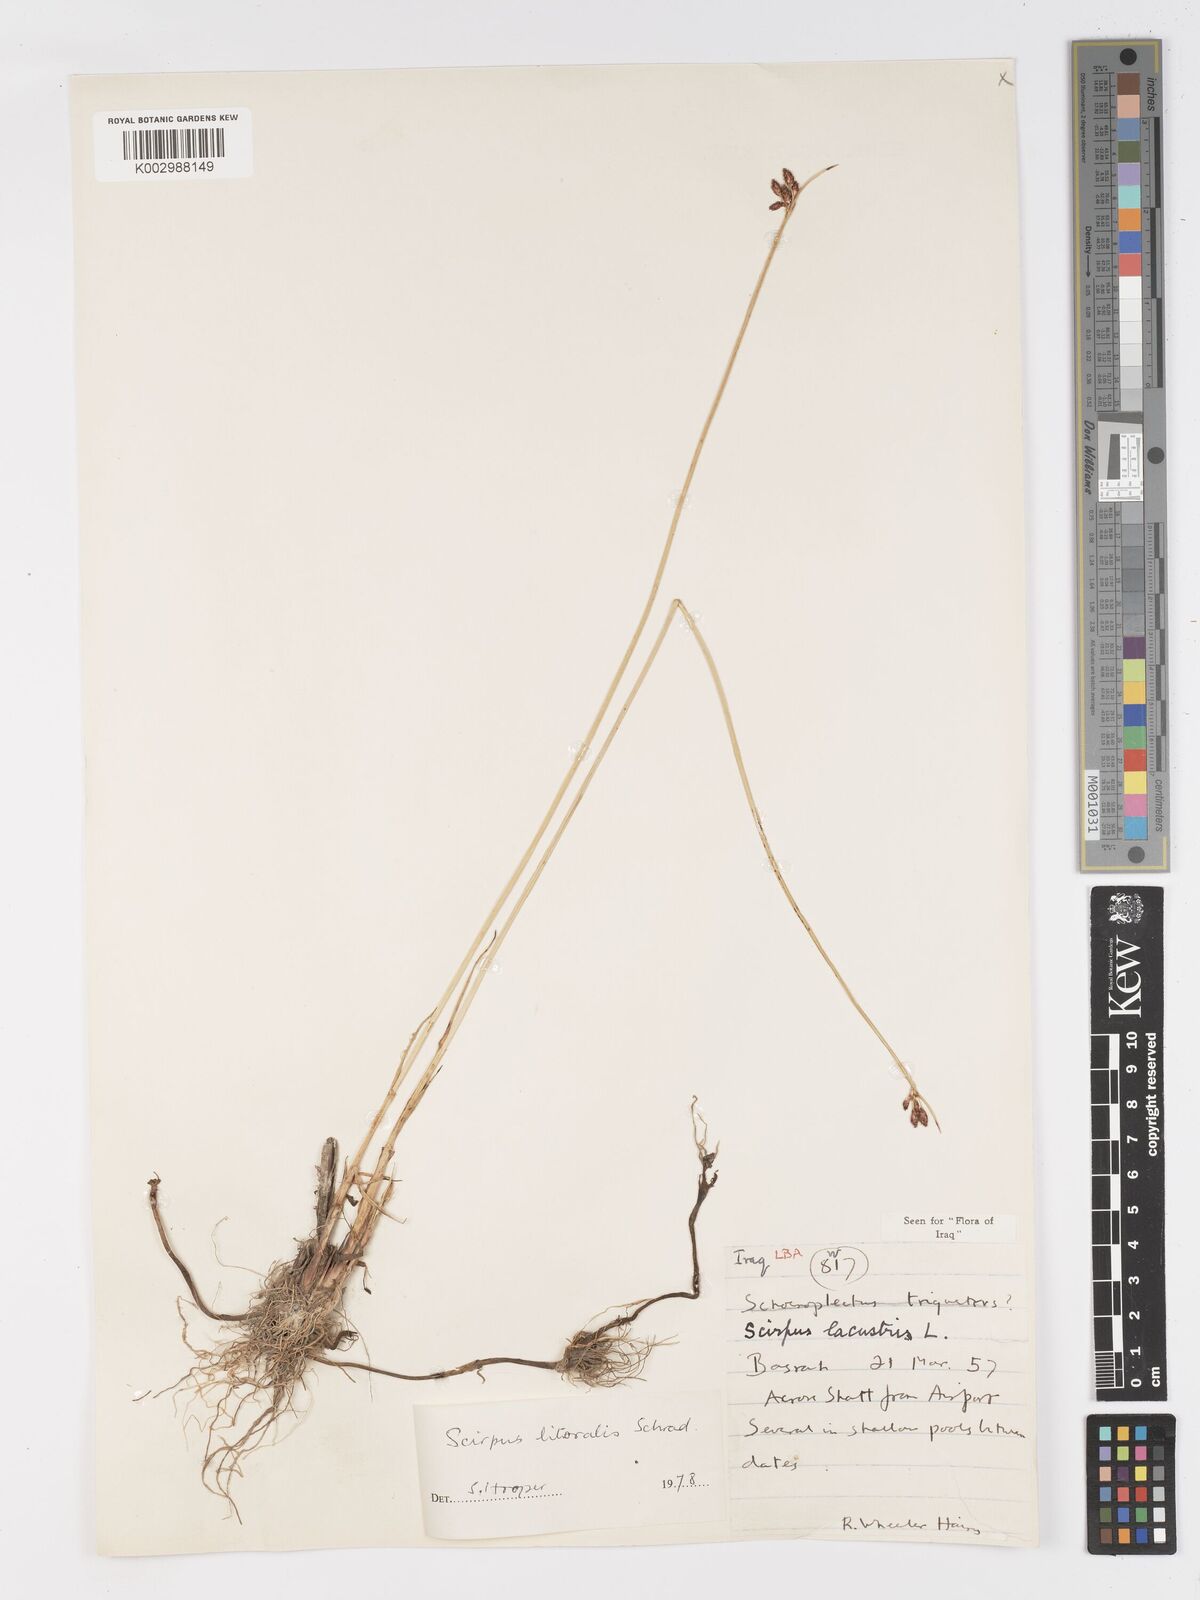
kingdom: Plantae
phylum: Tracheophyta
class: Liliopsida
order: Poales
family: Cyperaceae
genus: Schoenoplectus
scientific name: Schoenoplectus litoralis
